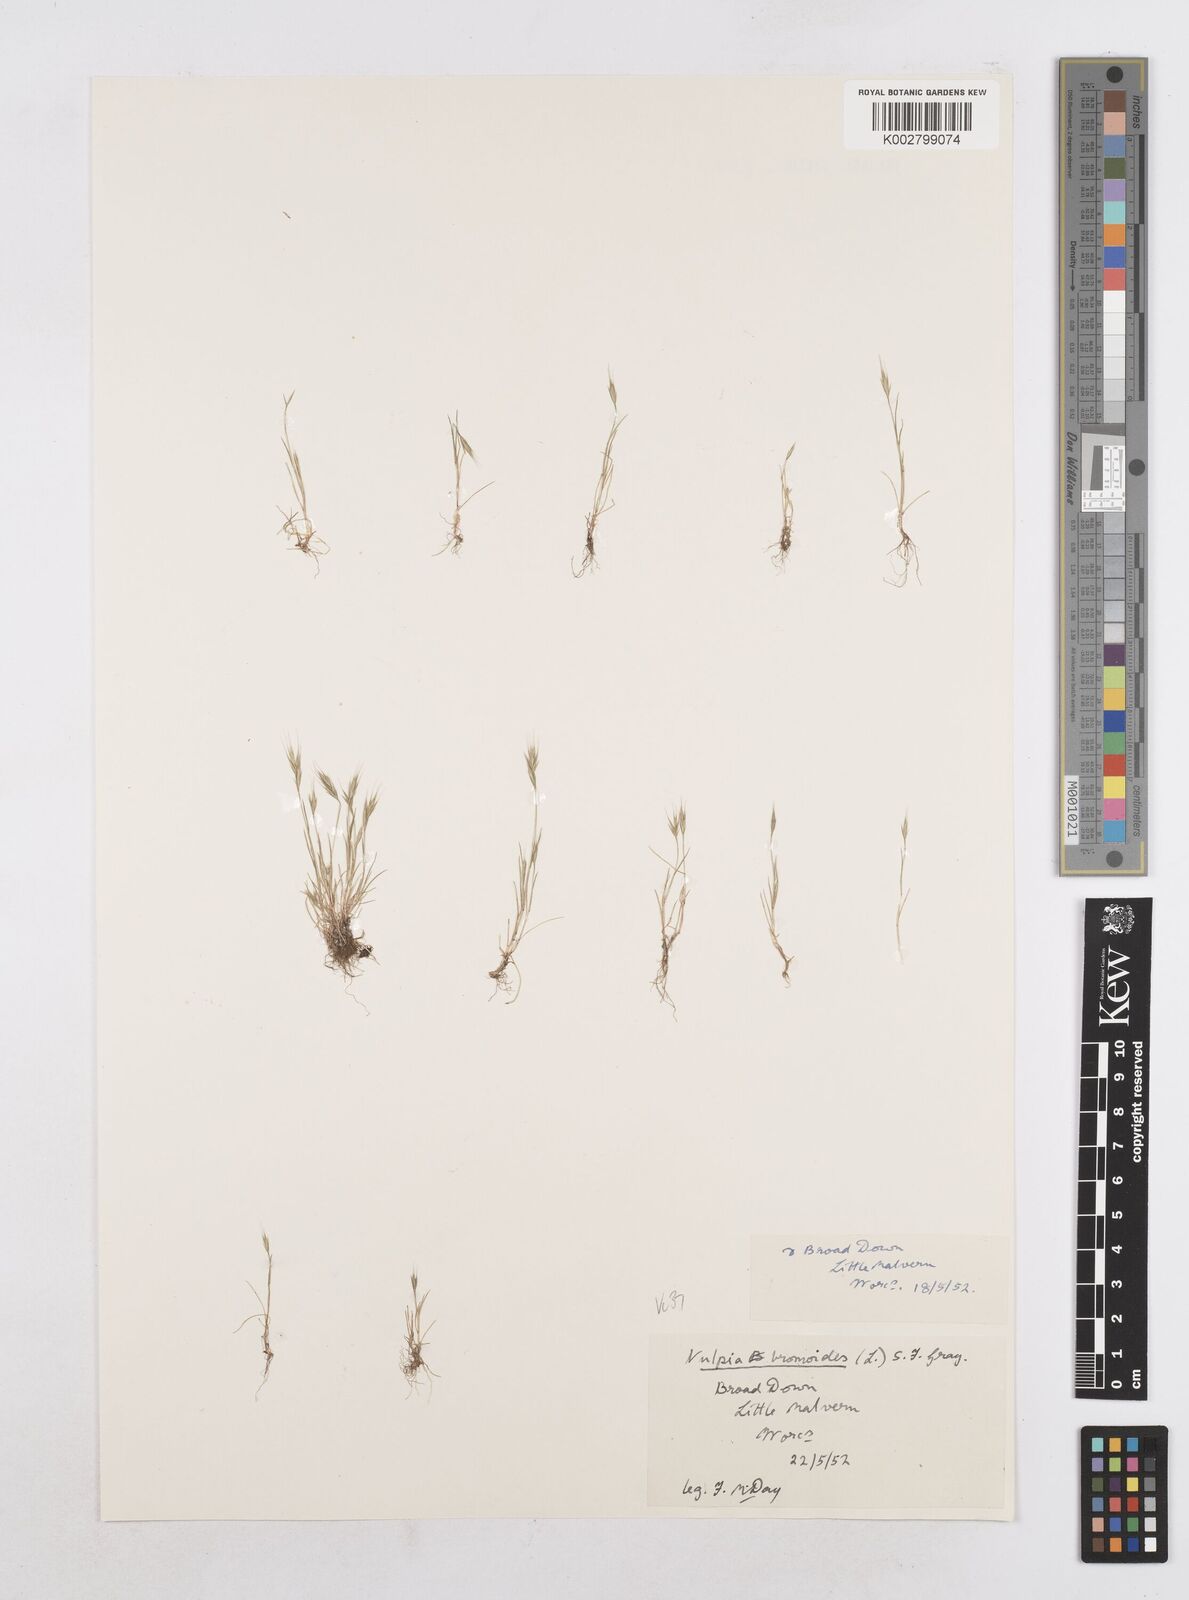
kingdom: Plantae
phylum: Tracheophyta
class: Liliopsida
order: Poales
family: Poaceae
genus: Festuca
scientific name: Festuca bromoides
